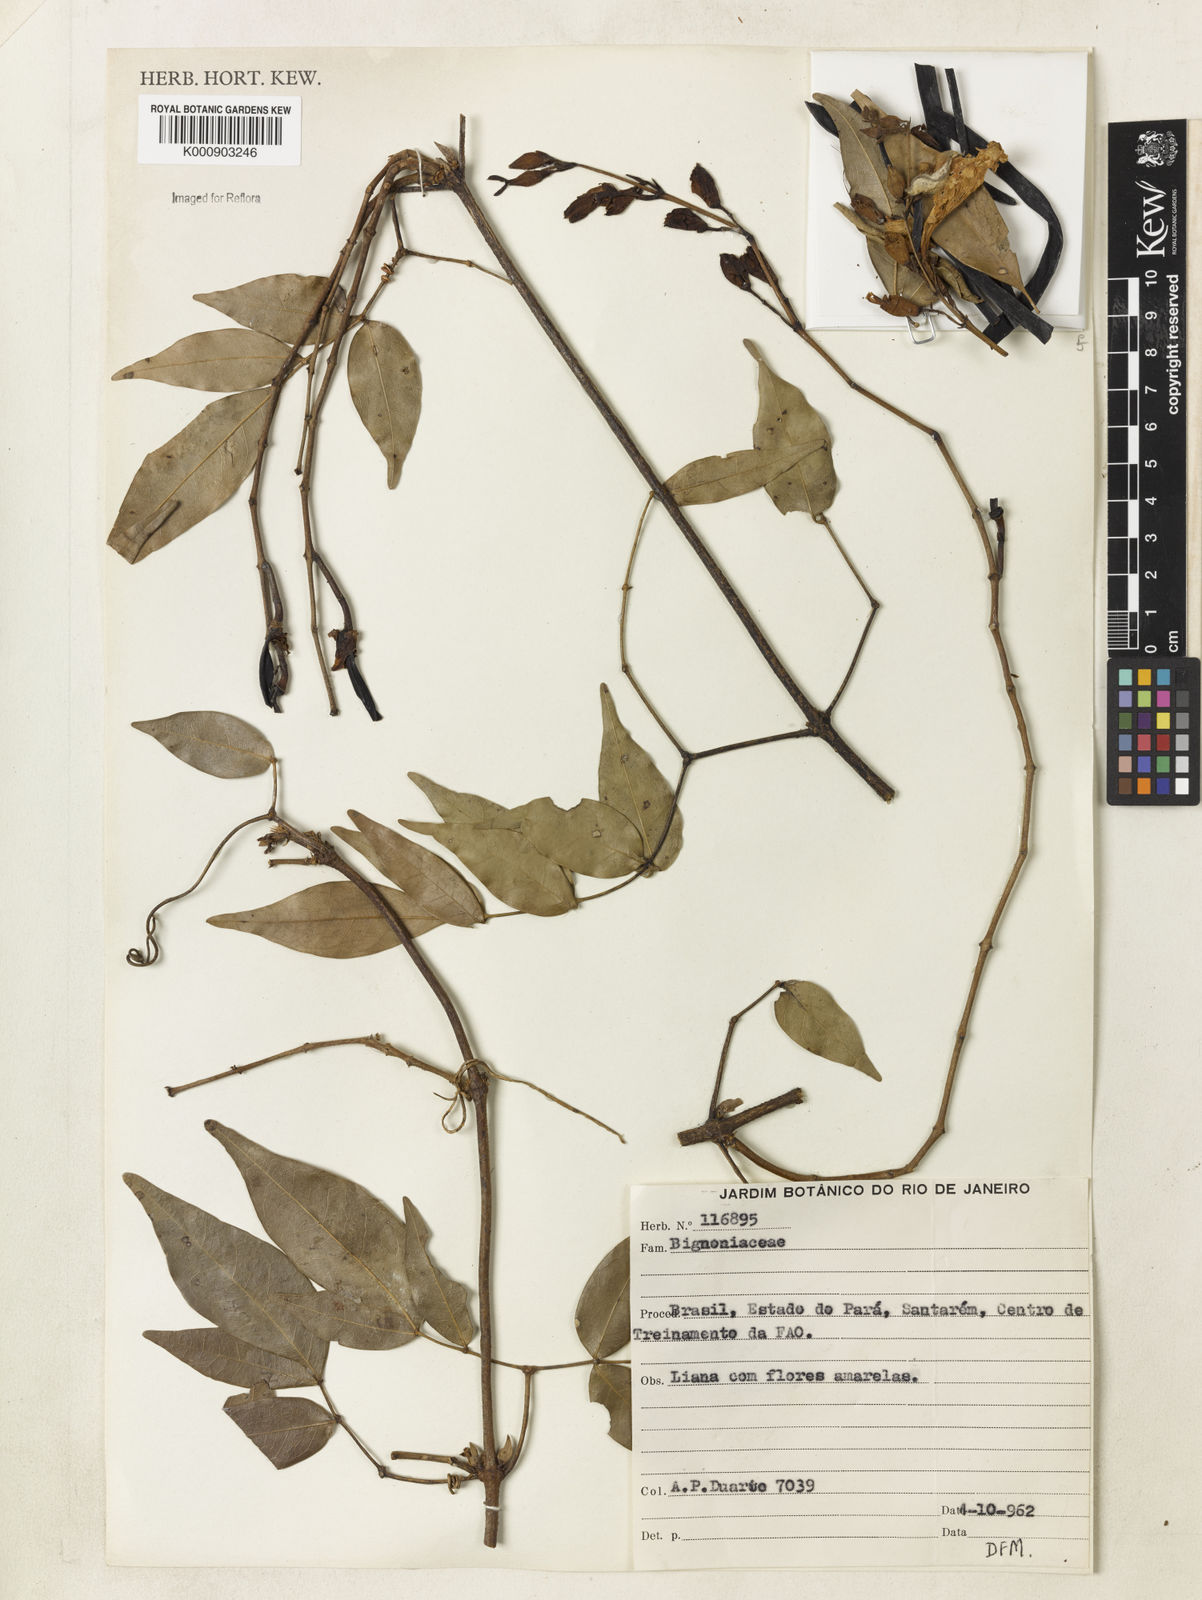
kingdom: Plantae
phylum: Tracheophyta
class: Magnoliopsida
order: Lamiales
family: Bignoniaceae
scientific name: Bignoniaceae
